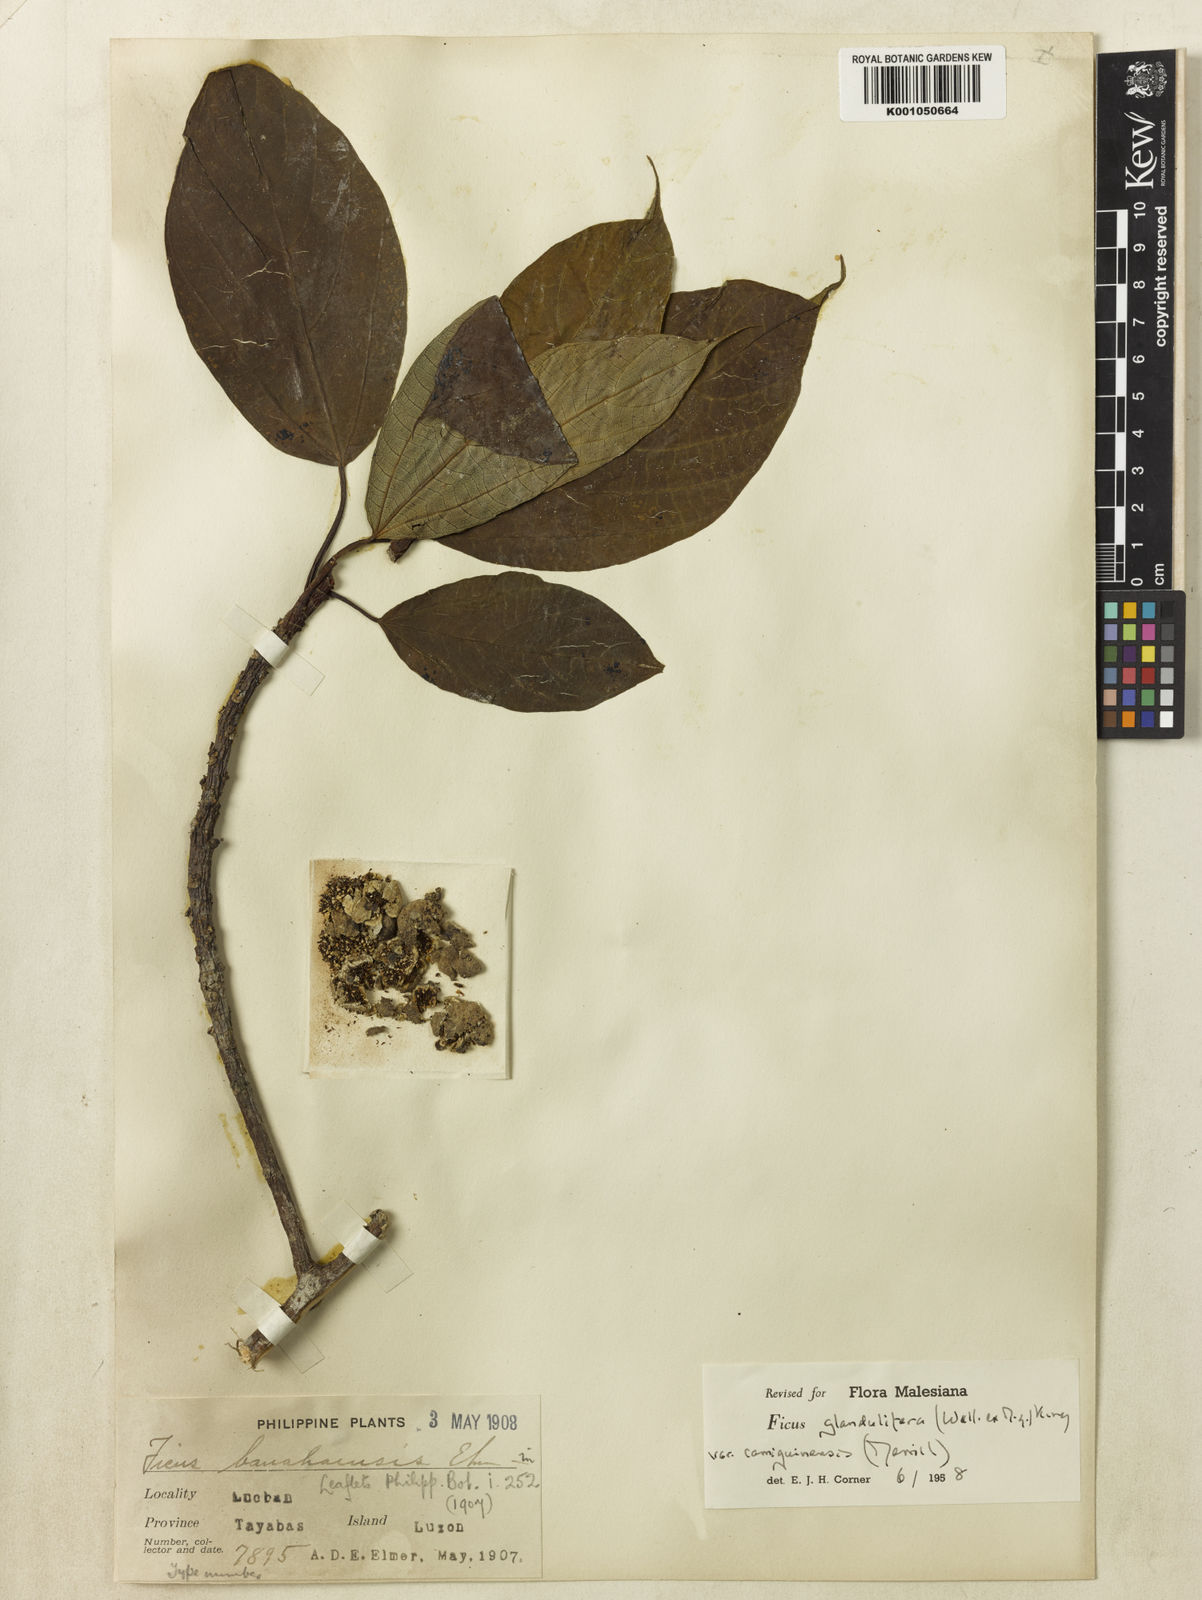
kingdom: Plantae
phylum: Tracheophyta
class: Magnoliopsida
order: Rosales
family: Moraceae
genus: Ficus
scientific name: Ficus
